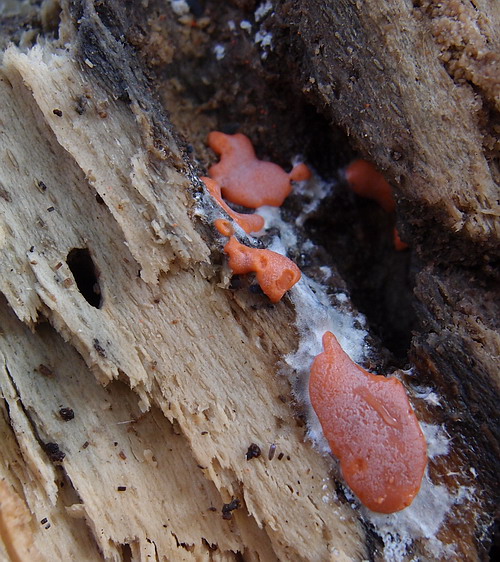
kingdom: Protozoa
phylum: Mycetozoa
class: Myxomycetes
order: Trichiales
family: Dictydiaethaliaceae
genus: Dictydiaethalium
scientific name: Dictydiaethalium plumbeum
